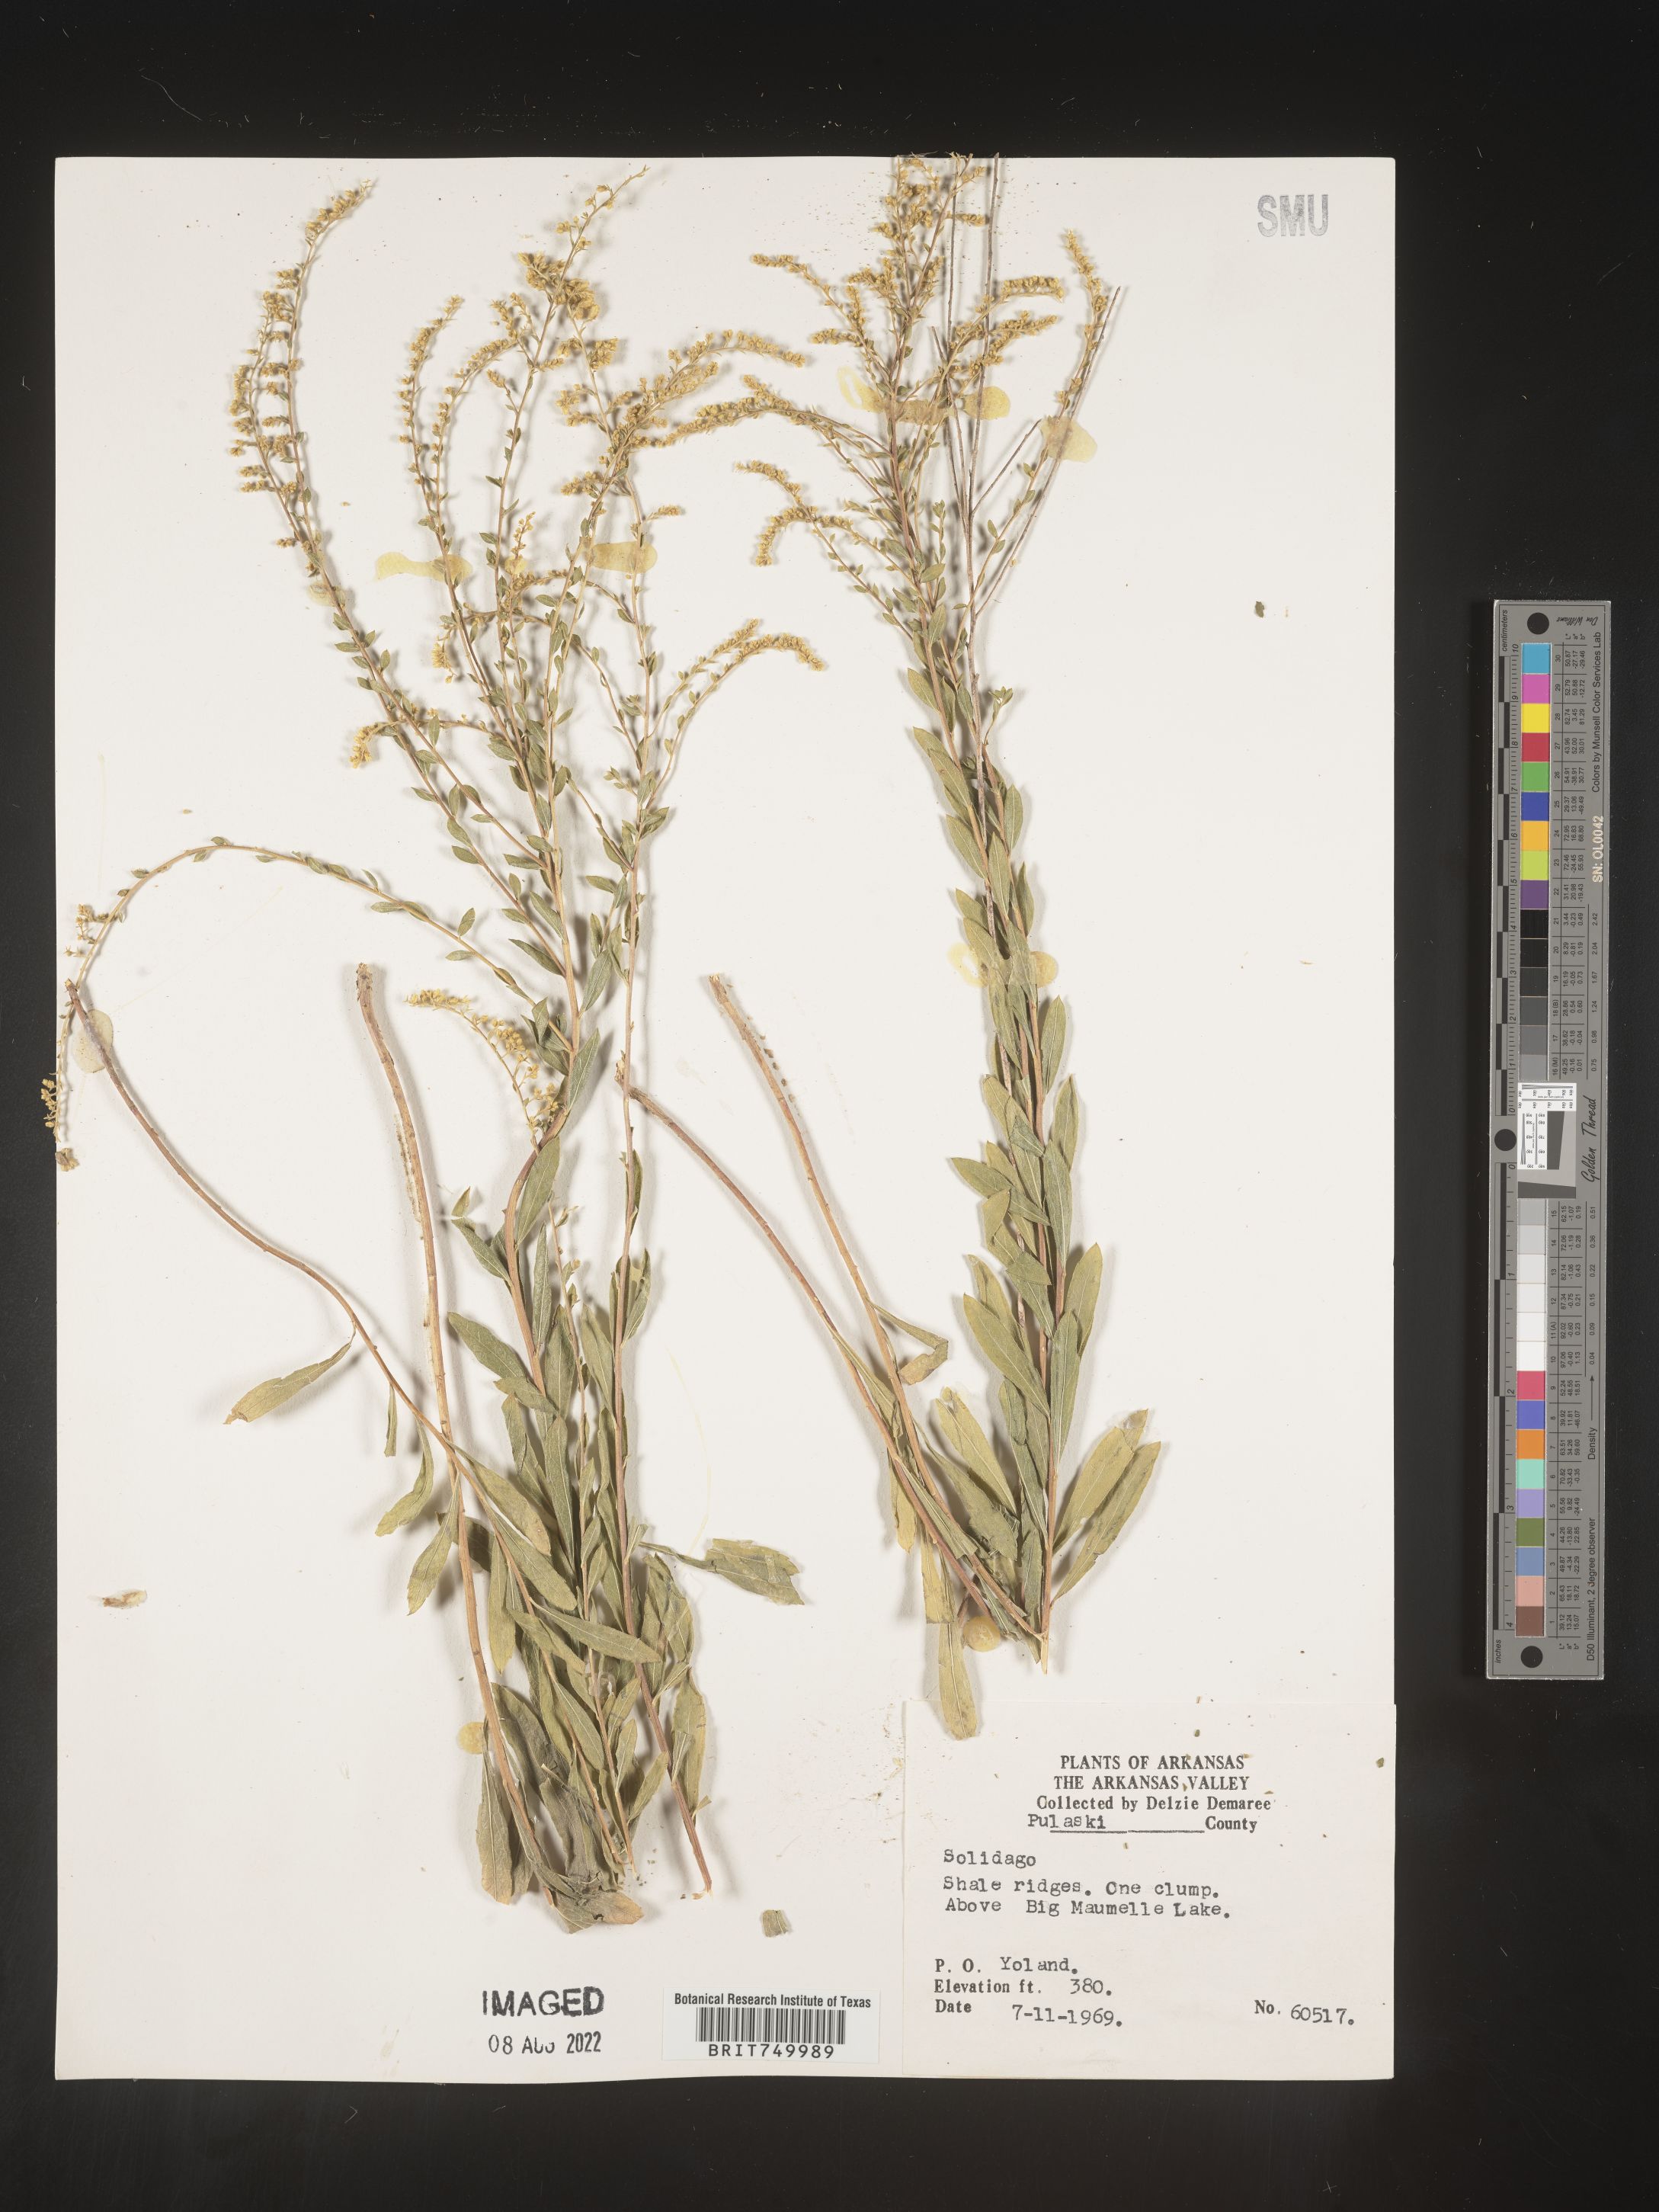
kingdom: Plantae
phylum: Tracheophyta
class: Magnoliopsida
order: Asterales
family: Asteraceae
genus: Solidago
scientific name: Solidago
